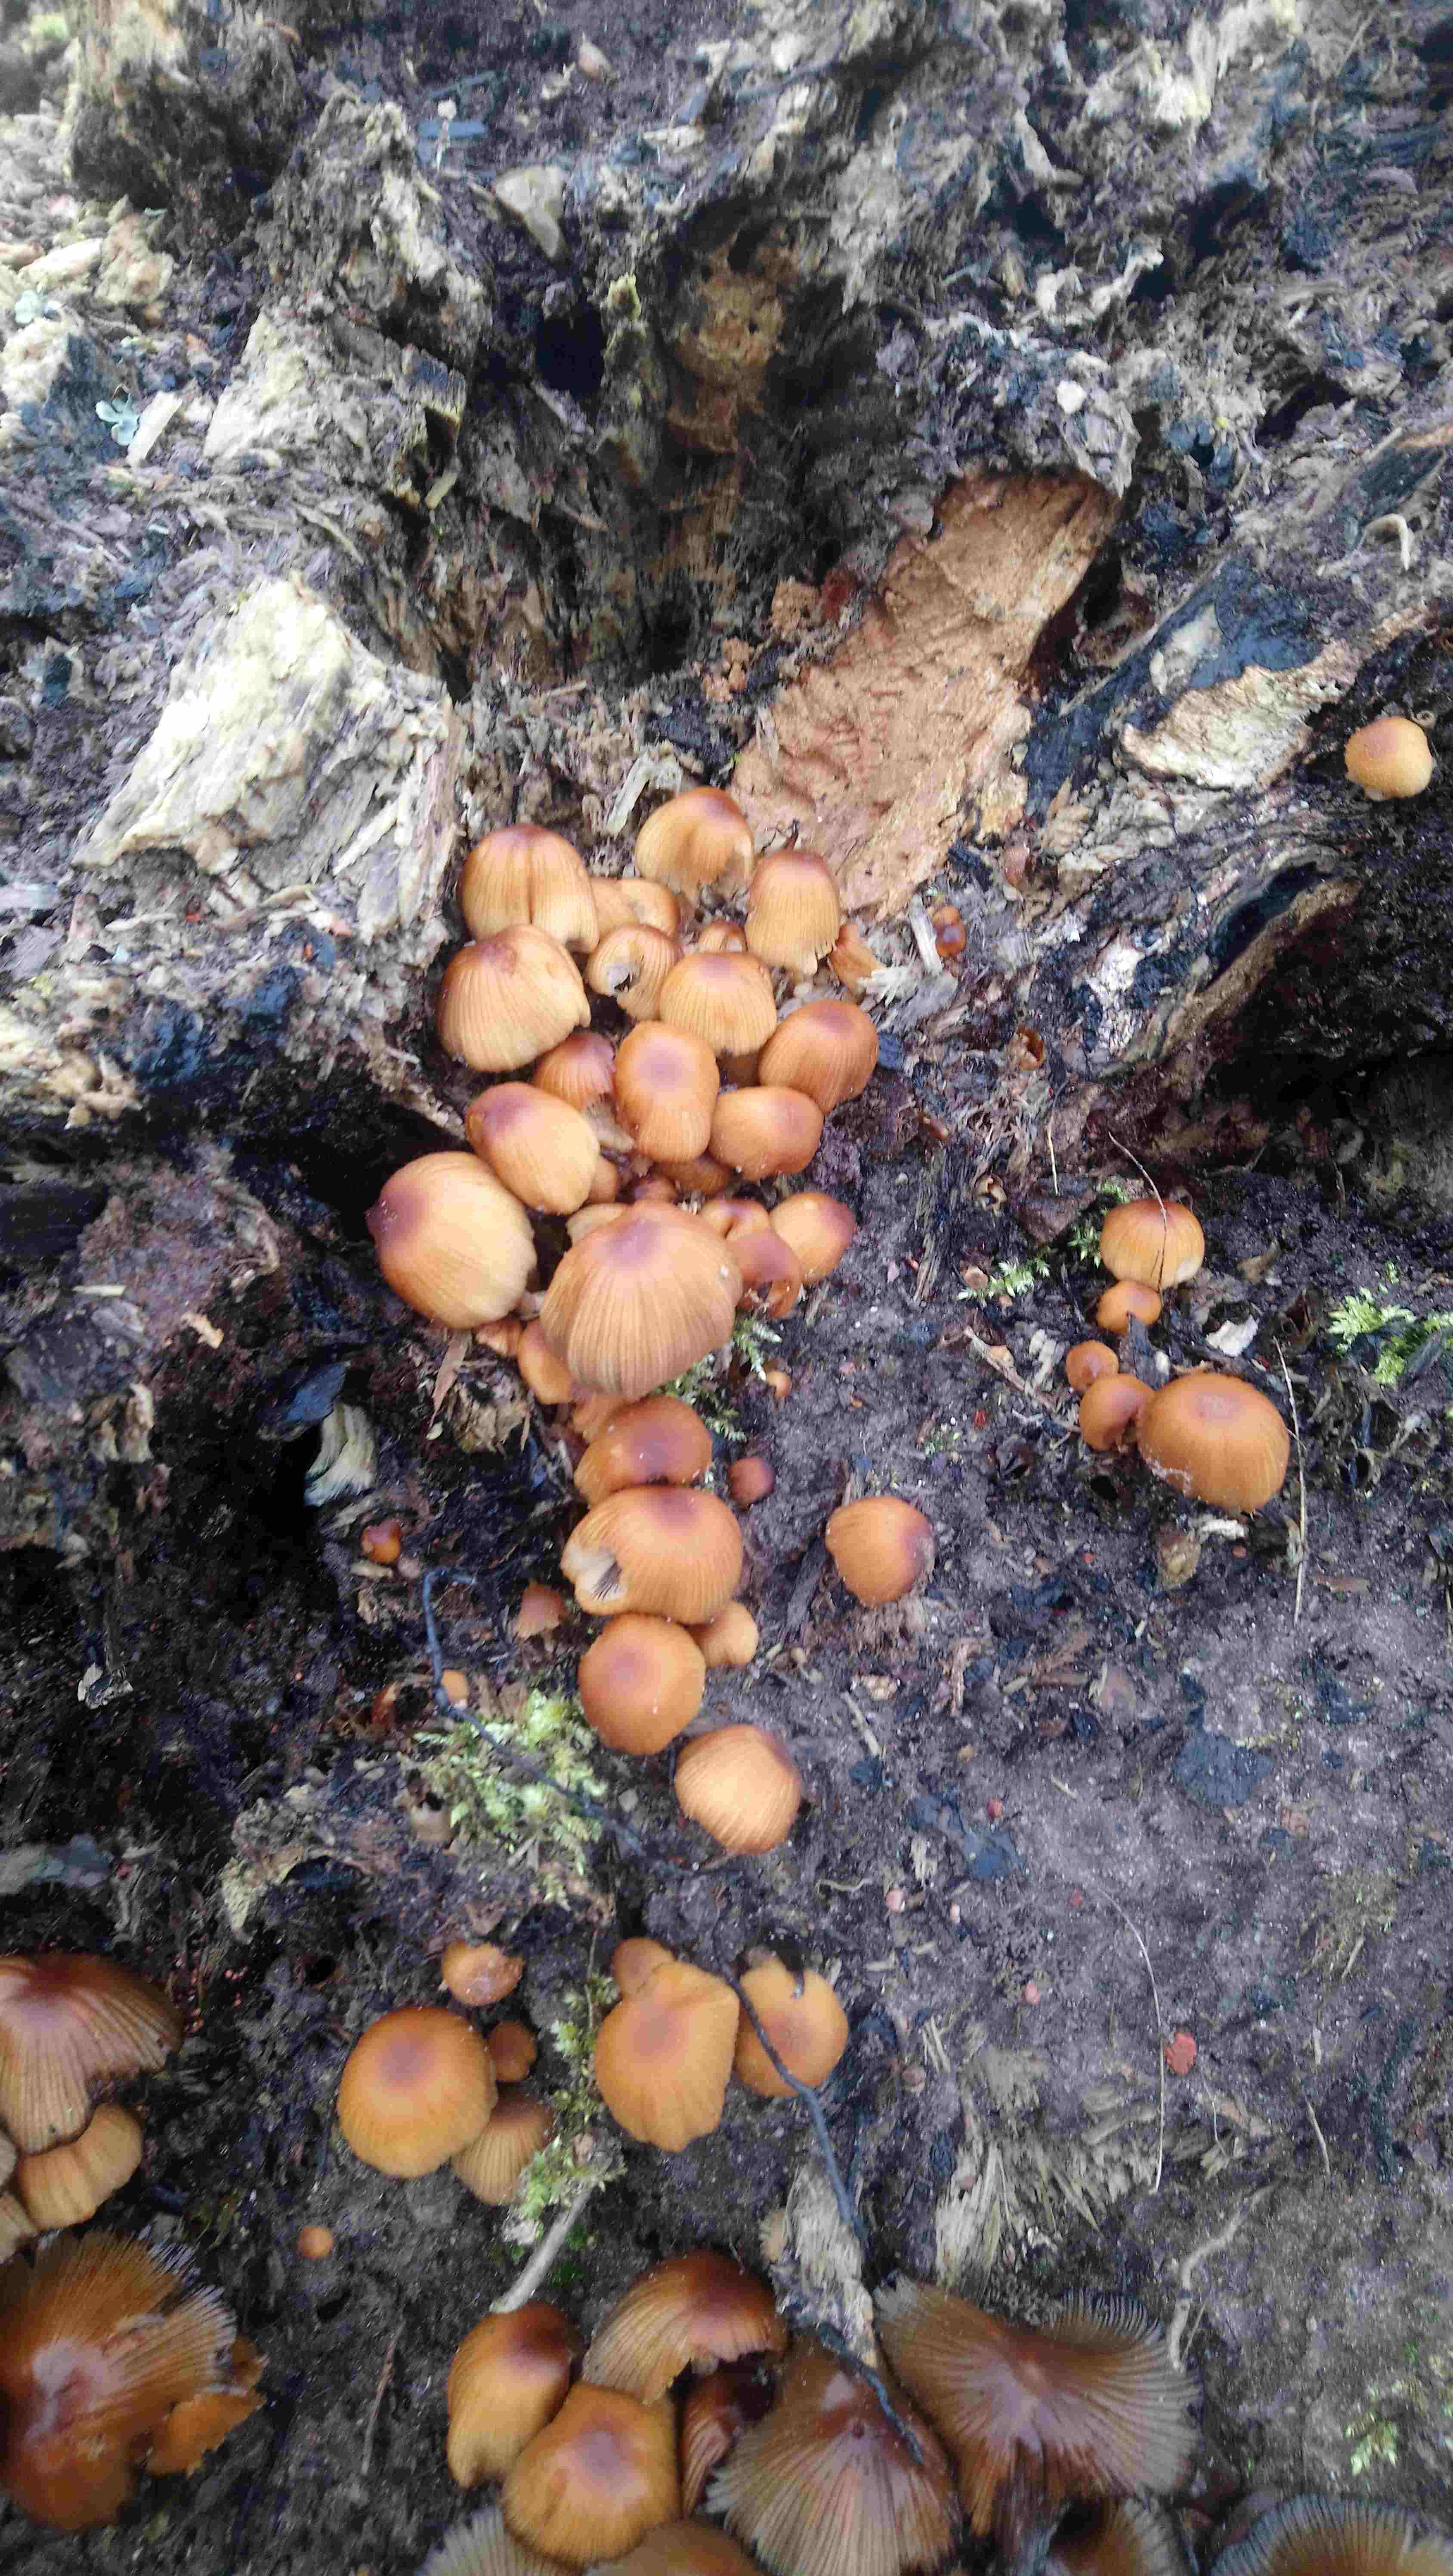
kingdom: Fungi
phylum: Basidiomycota
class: Agaricomycetes
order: Agaricales
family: Psathyrellaceae
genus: Coprinellus
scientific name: Coprinellus
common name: blækhat
